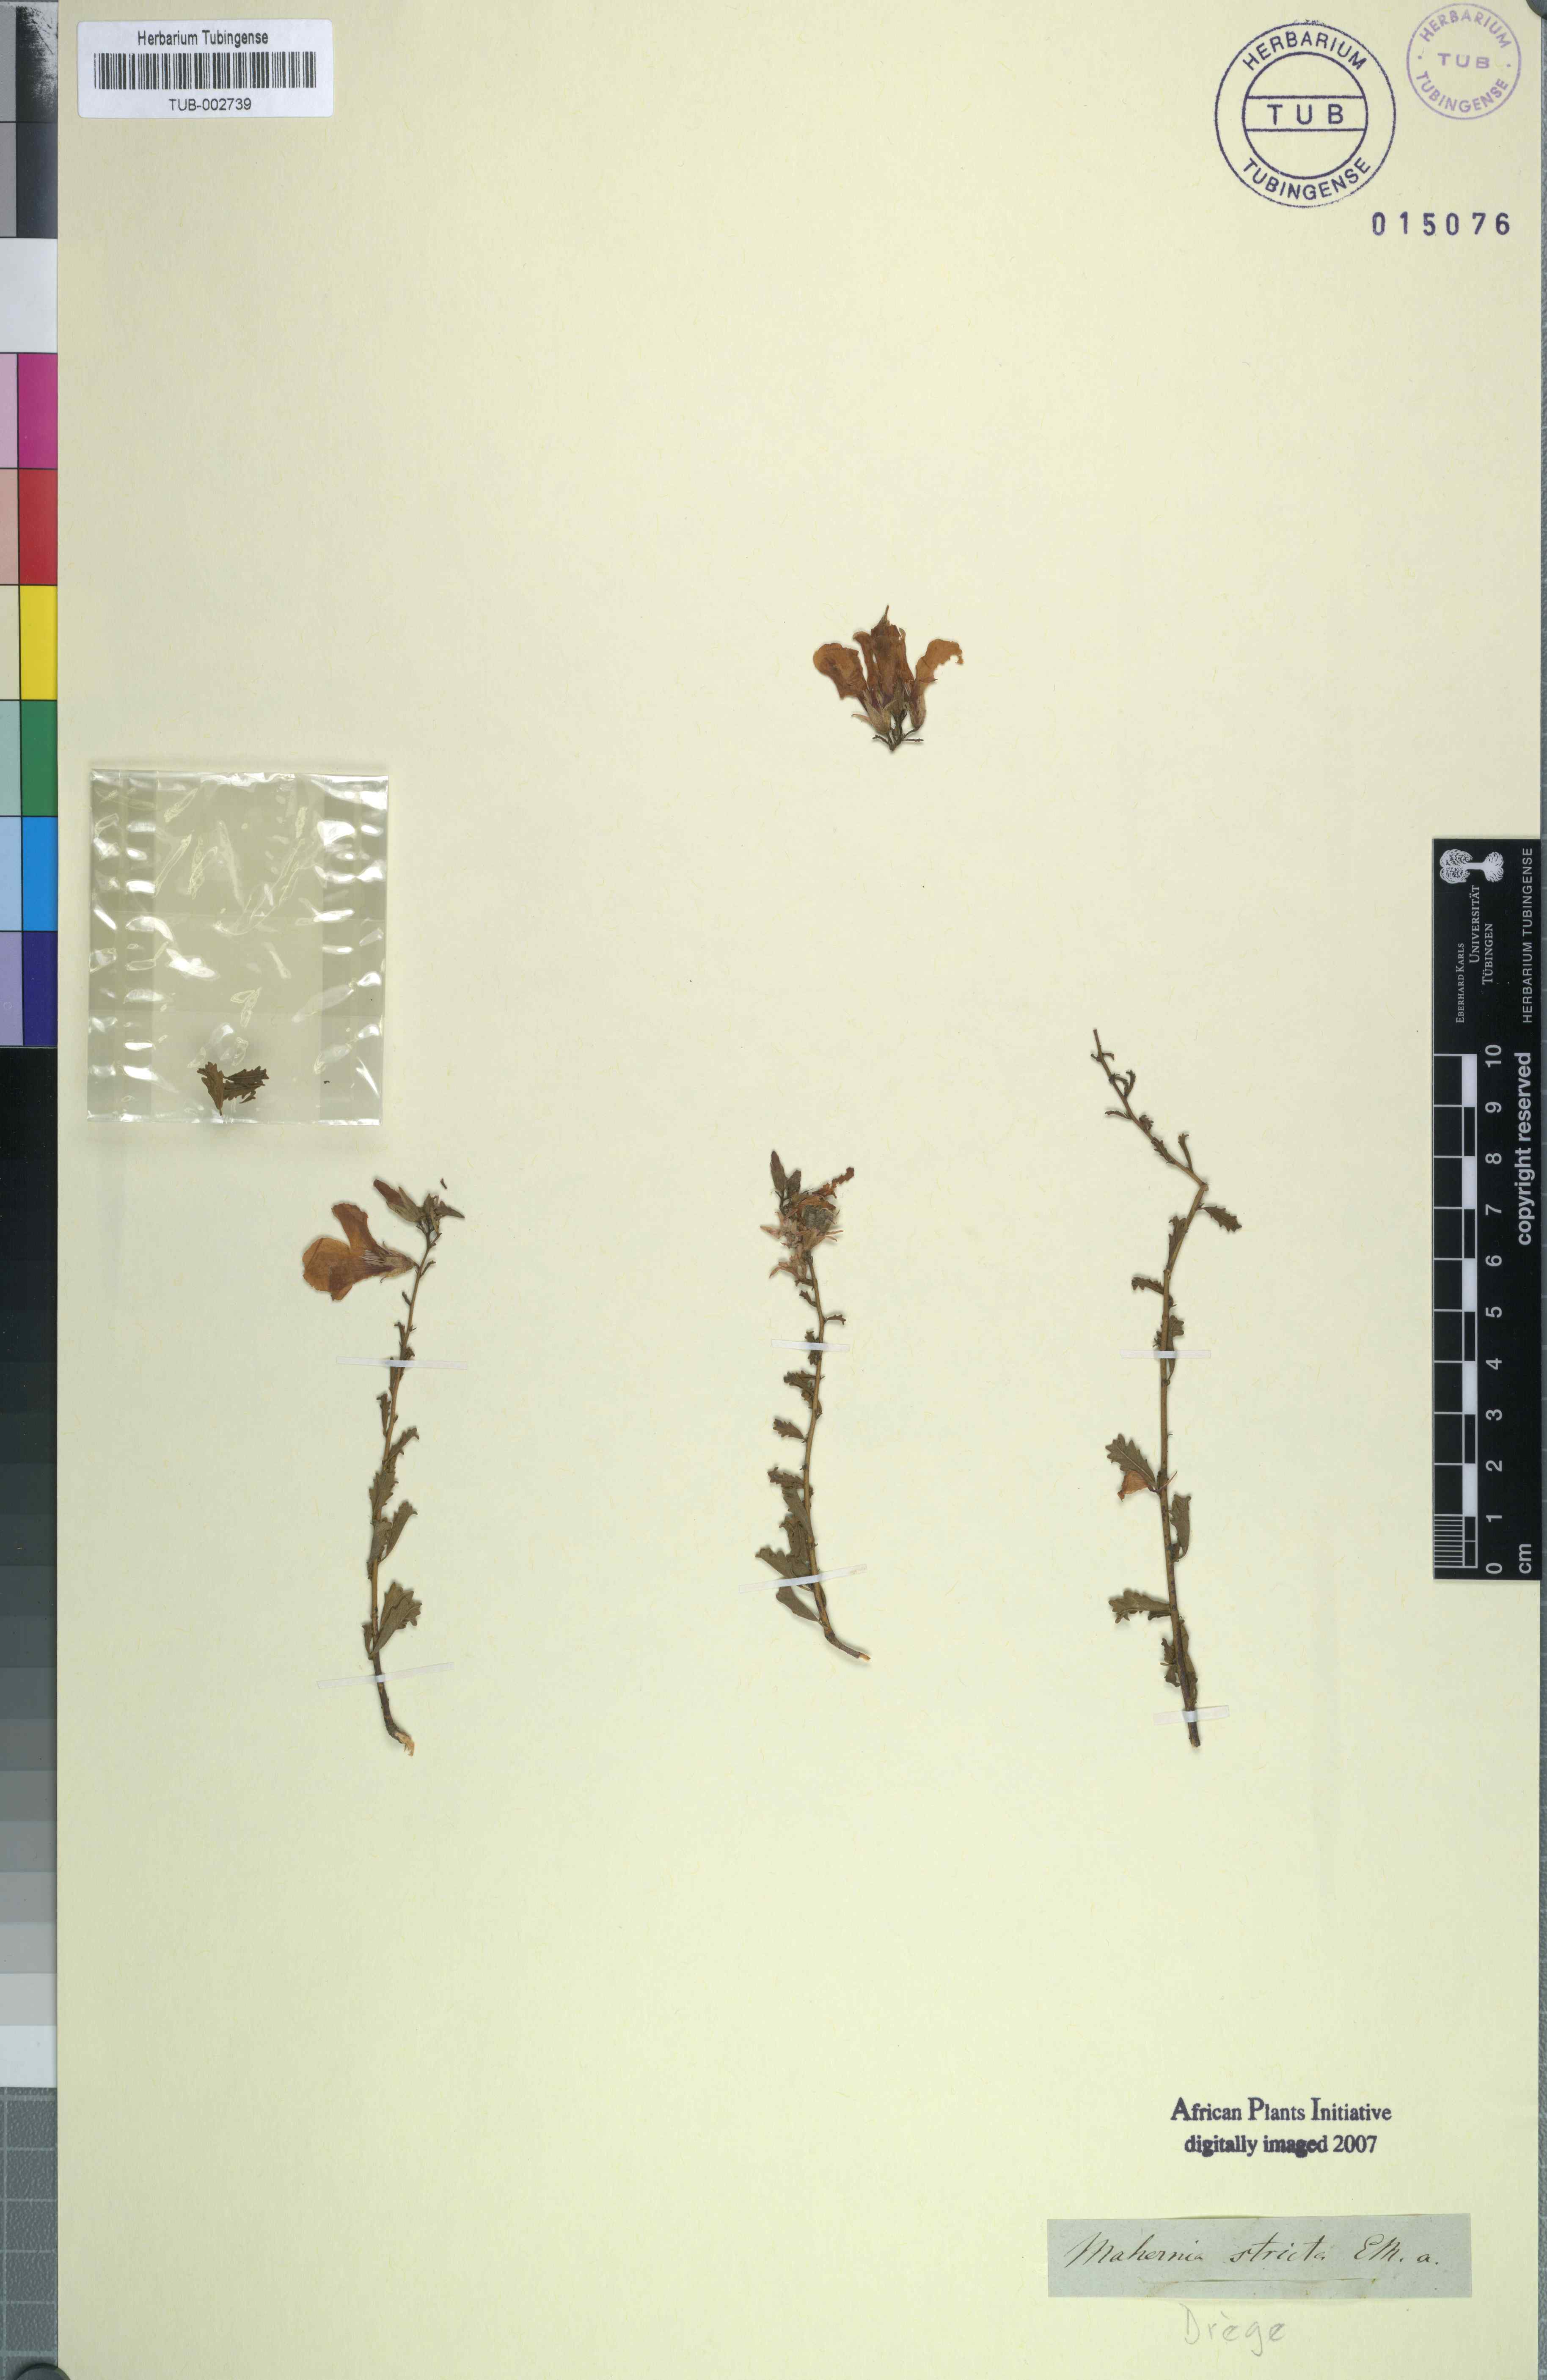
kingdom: Plantae
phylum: Tracheophyta
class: Magnoliopsida
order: Malvales
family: Malvaceae
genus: Hermannia
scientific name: Hermannia stricta
